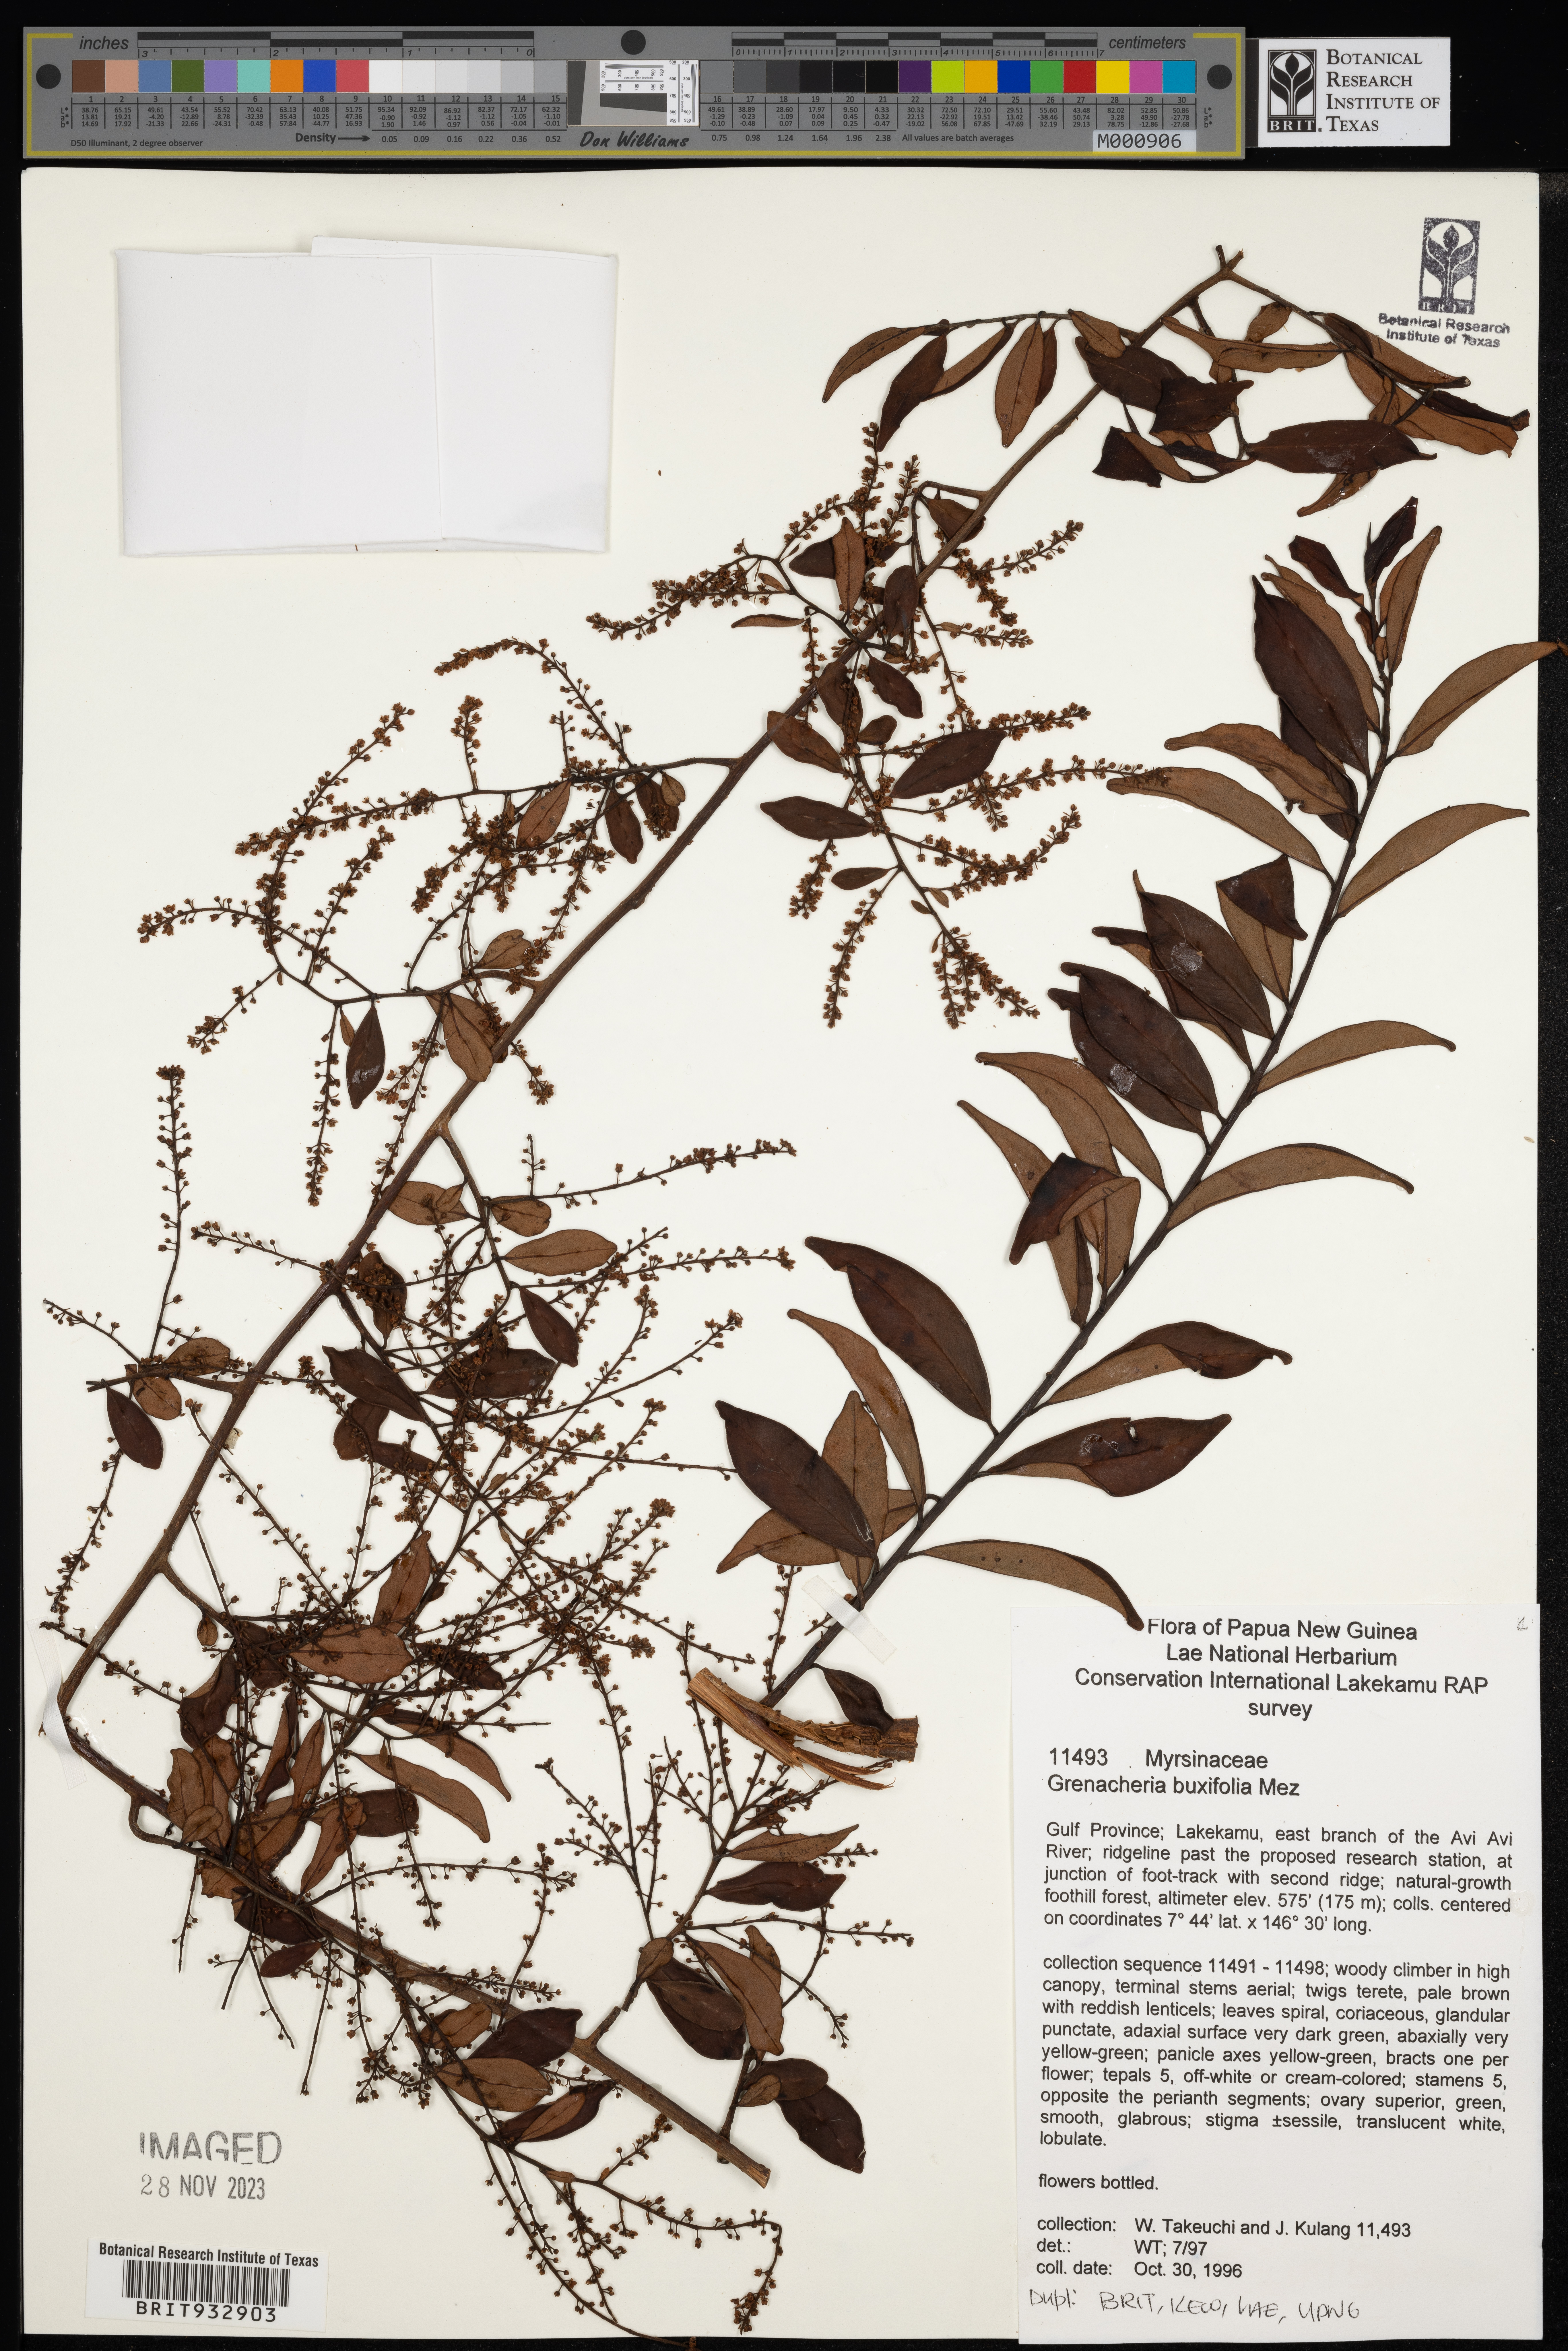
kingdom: Plantae
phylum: Tracheophyta
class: Magnoliopsida
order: Ericales
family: Primulaceae
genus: Grenacheria
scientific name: Grenacheria
